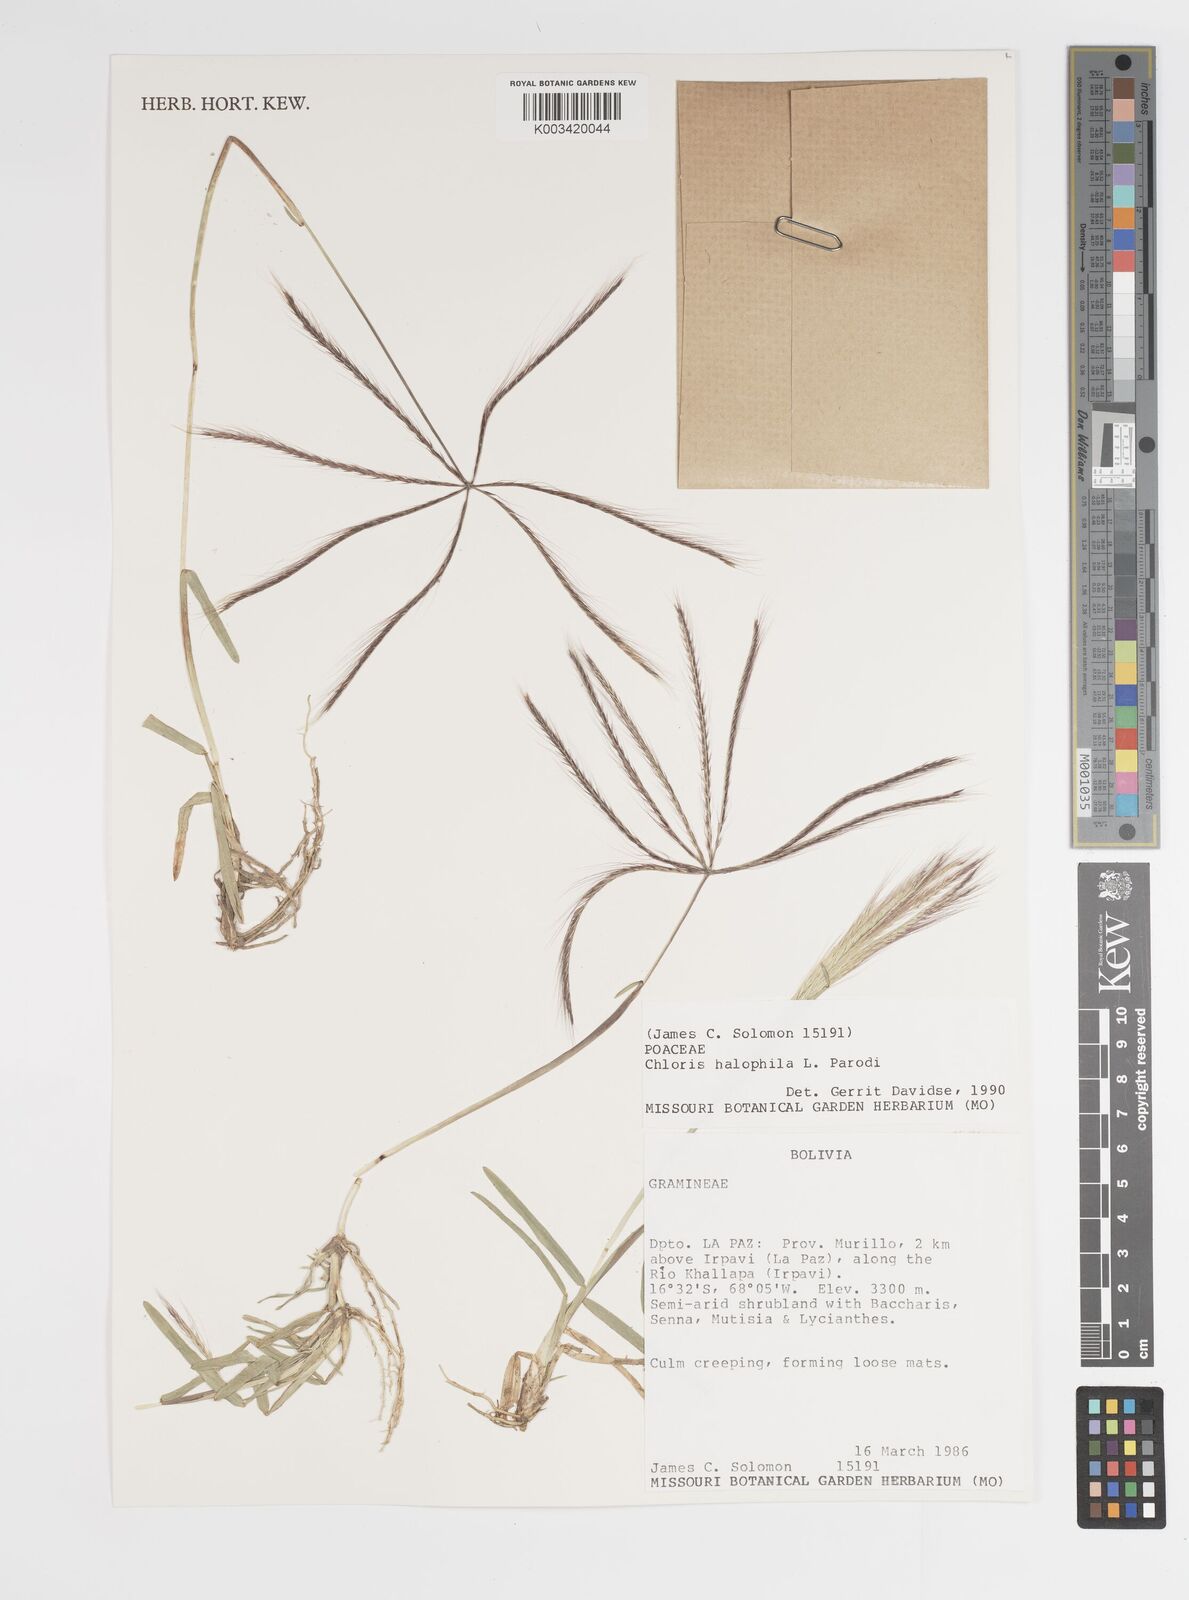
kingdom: Plantae
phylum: Tracheophyta
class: Liliopsida
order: Poales
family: Poaceae
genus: Chloris
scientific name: Chloris halophila
